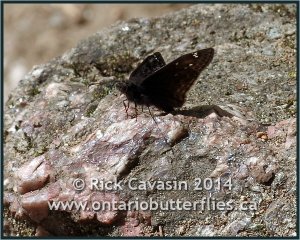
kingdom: Animalia
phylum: Arthropoda
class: Insecta
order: Lepidoptera
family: Hesperiidae
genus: Gesta
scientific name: Gesta
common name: Juvenal's Duskywing
